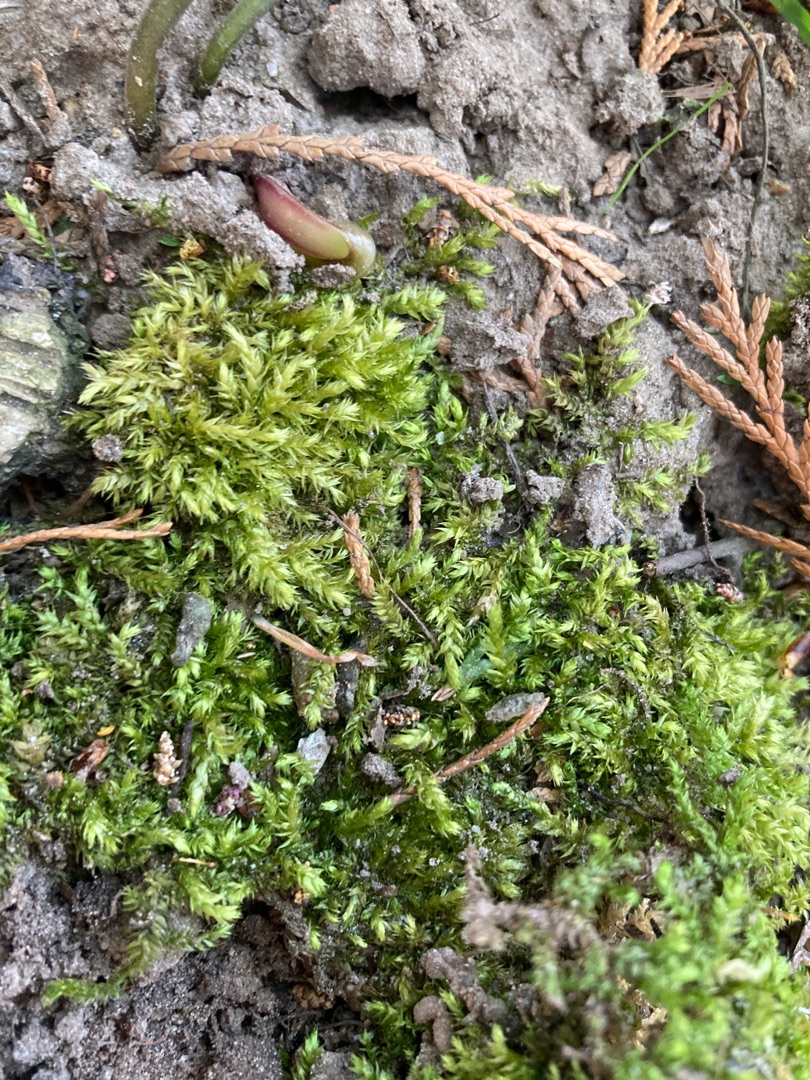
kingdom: Plantae
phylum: Bryophyta
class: Bryopsida
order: Hypnales
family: Brachytheciaceae
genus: Brachythecium
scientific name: Brachythecium rutabulum
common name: Almindelig kortkapsel
